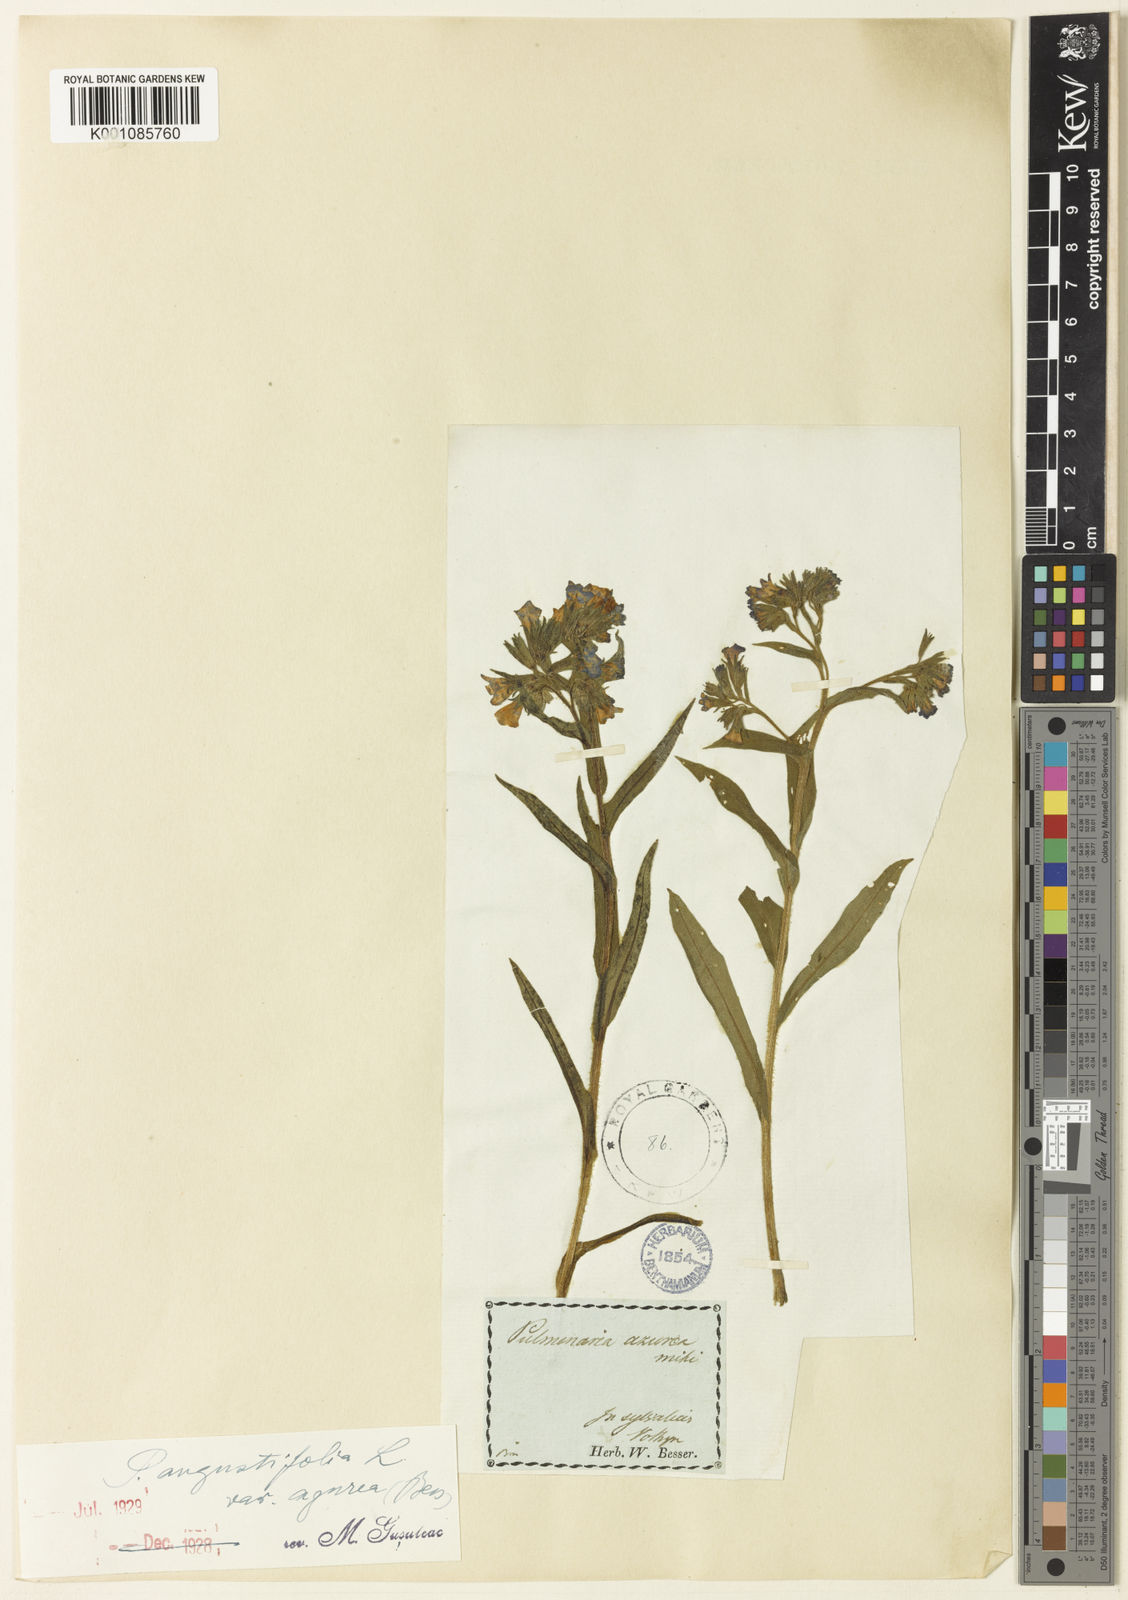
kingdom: Plantae
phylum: Tracheophyta
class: Magnoliopsida
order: Boraginales
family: Boraginaceae
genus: Pulmonaria
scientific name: Pulmonaria angustifolia
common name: Blue cowslip
